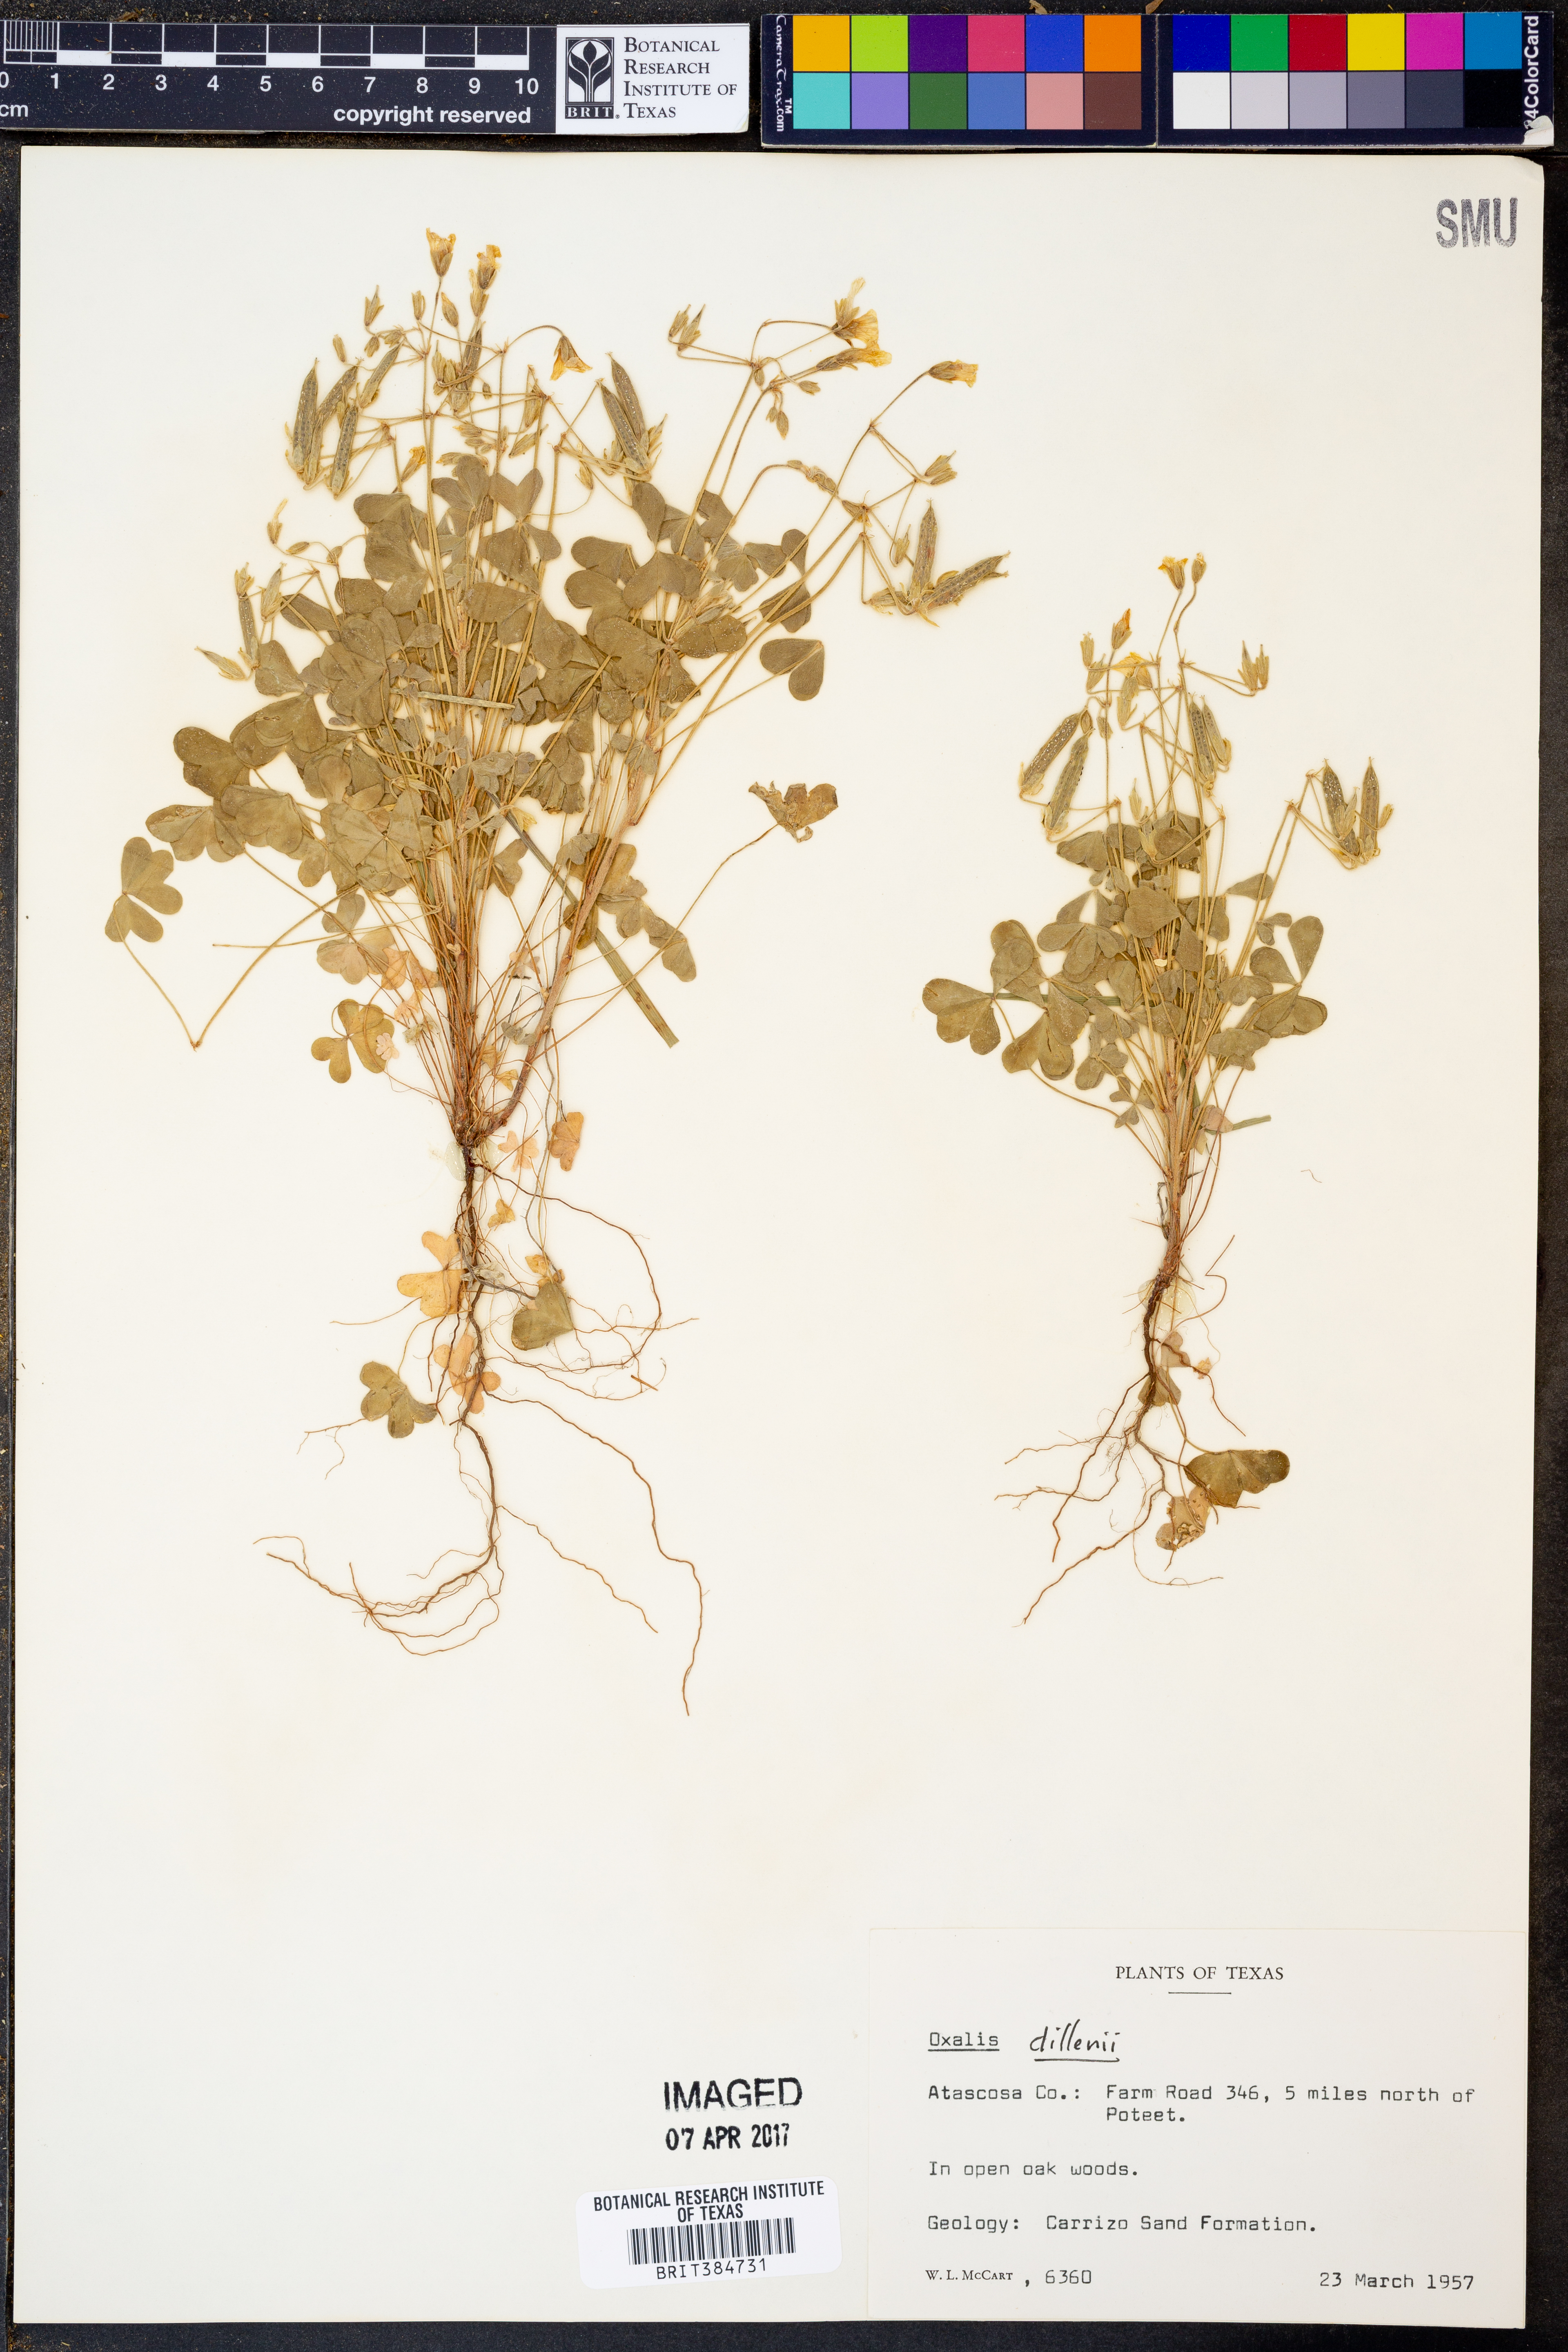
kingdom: Plantae
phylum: Tracheophyta
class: Magnoliopsida
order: Oxalidales
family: Oxalidaceae
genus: Oxalis
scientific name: Oxalis dillenii
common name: Sussex yellow-sorrel
